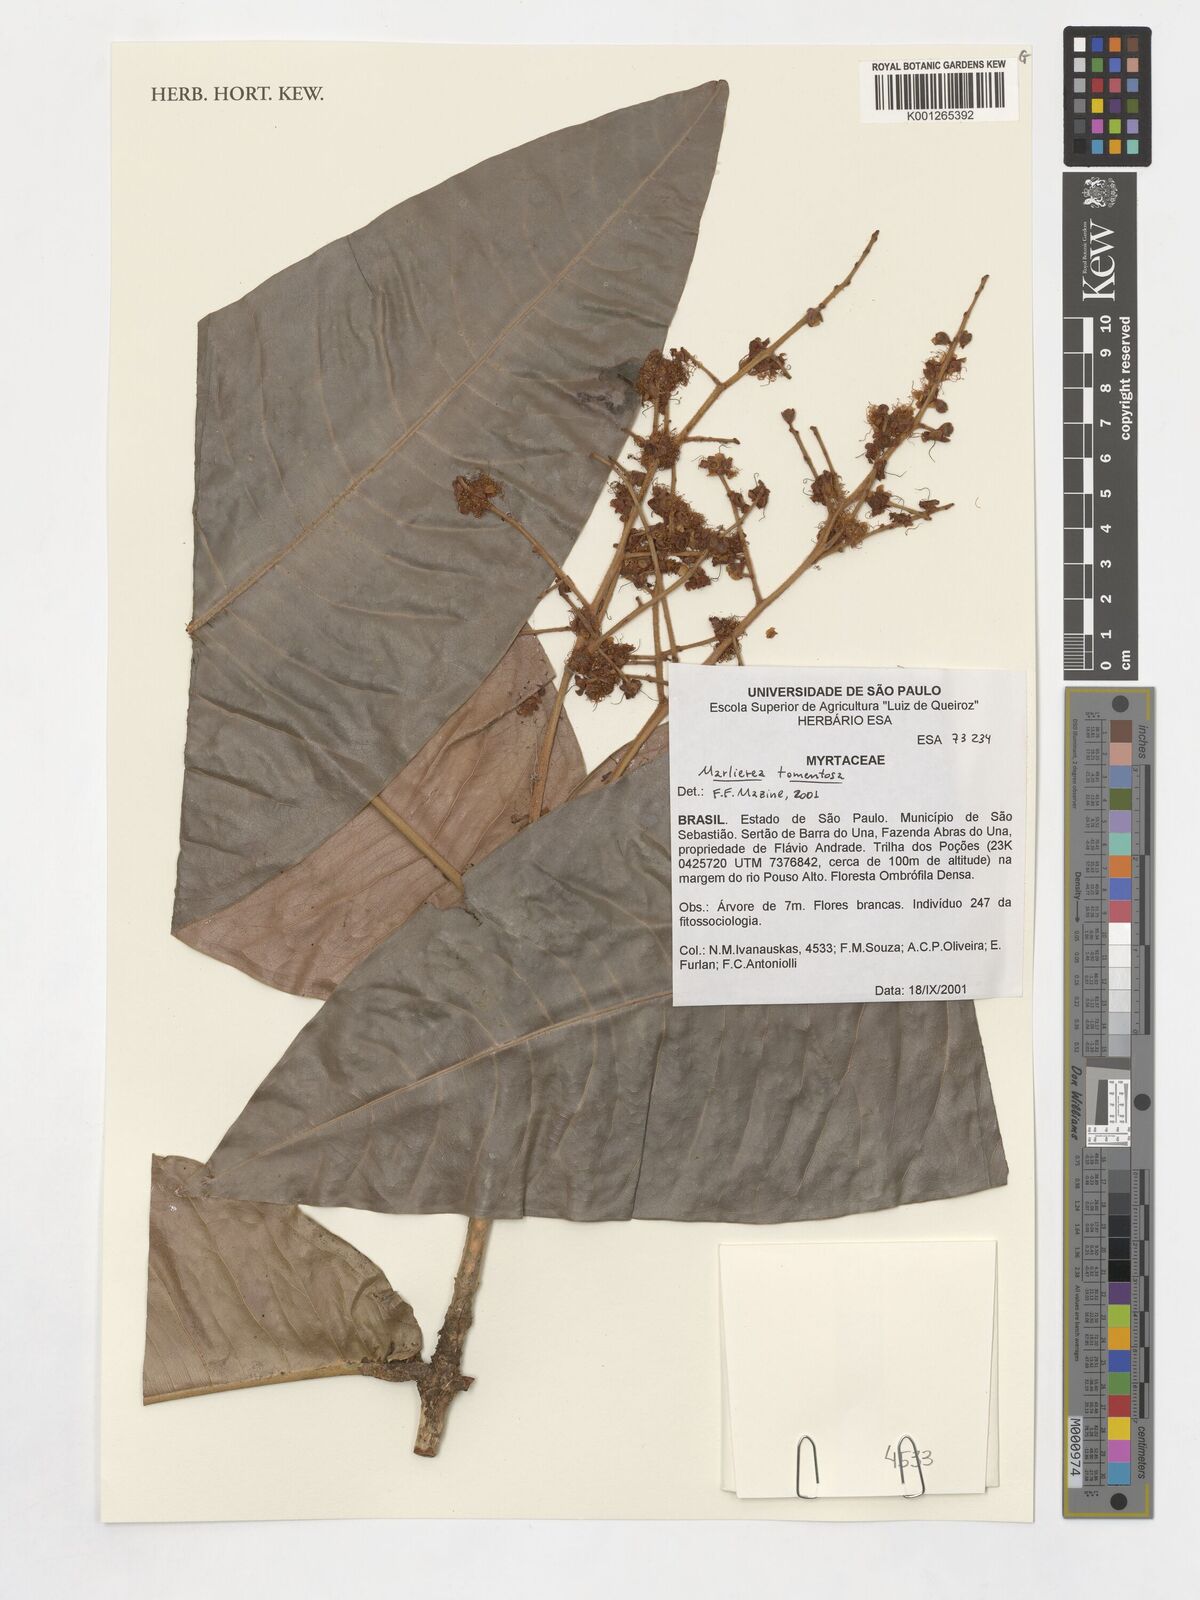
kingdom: Plantae
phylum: Tracheophyta
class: Magnoliopsida
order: Myrtales
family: Myrtaceae
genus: Myrcia
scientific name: Myrcia strigipes
